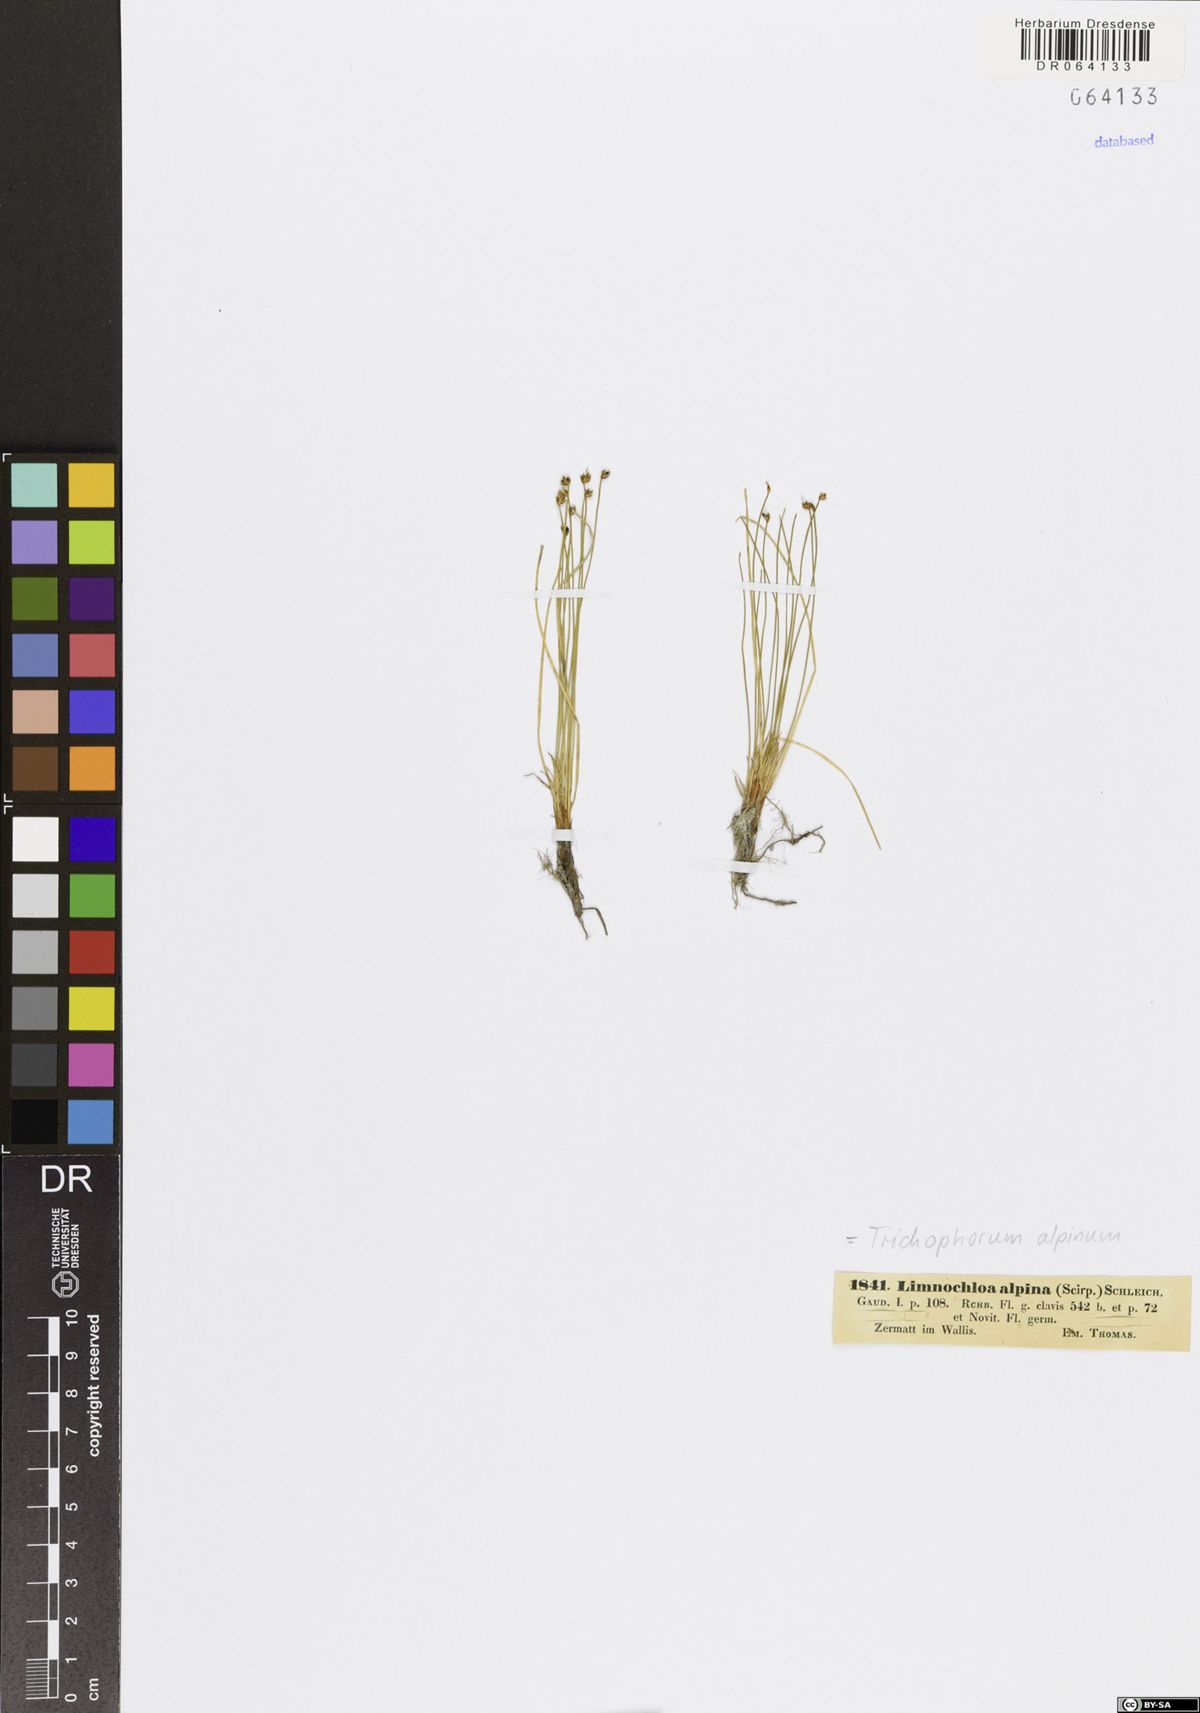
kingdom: Plantae
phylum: Tracheophyta
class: Liliopsida
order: Poales
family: Cyperaceae
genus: Trichophorum
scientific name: Trichophorum alpinum
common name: Alpine bulrush
